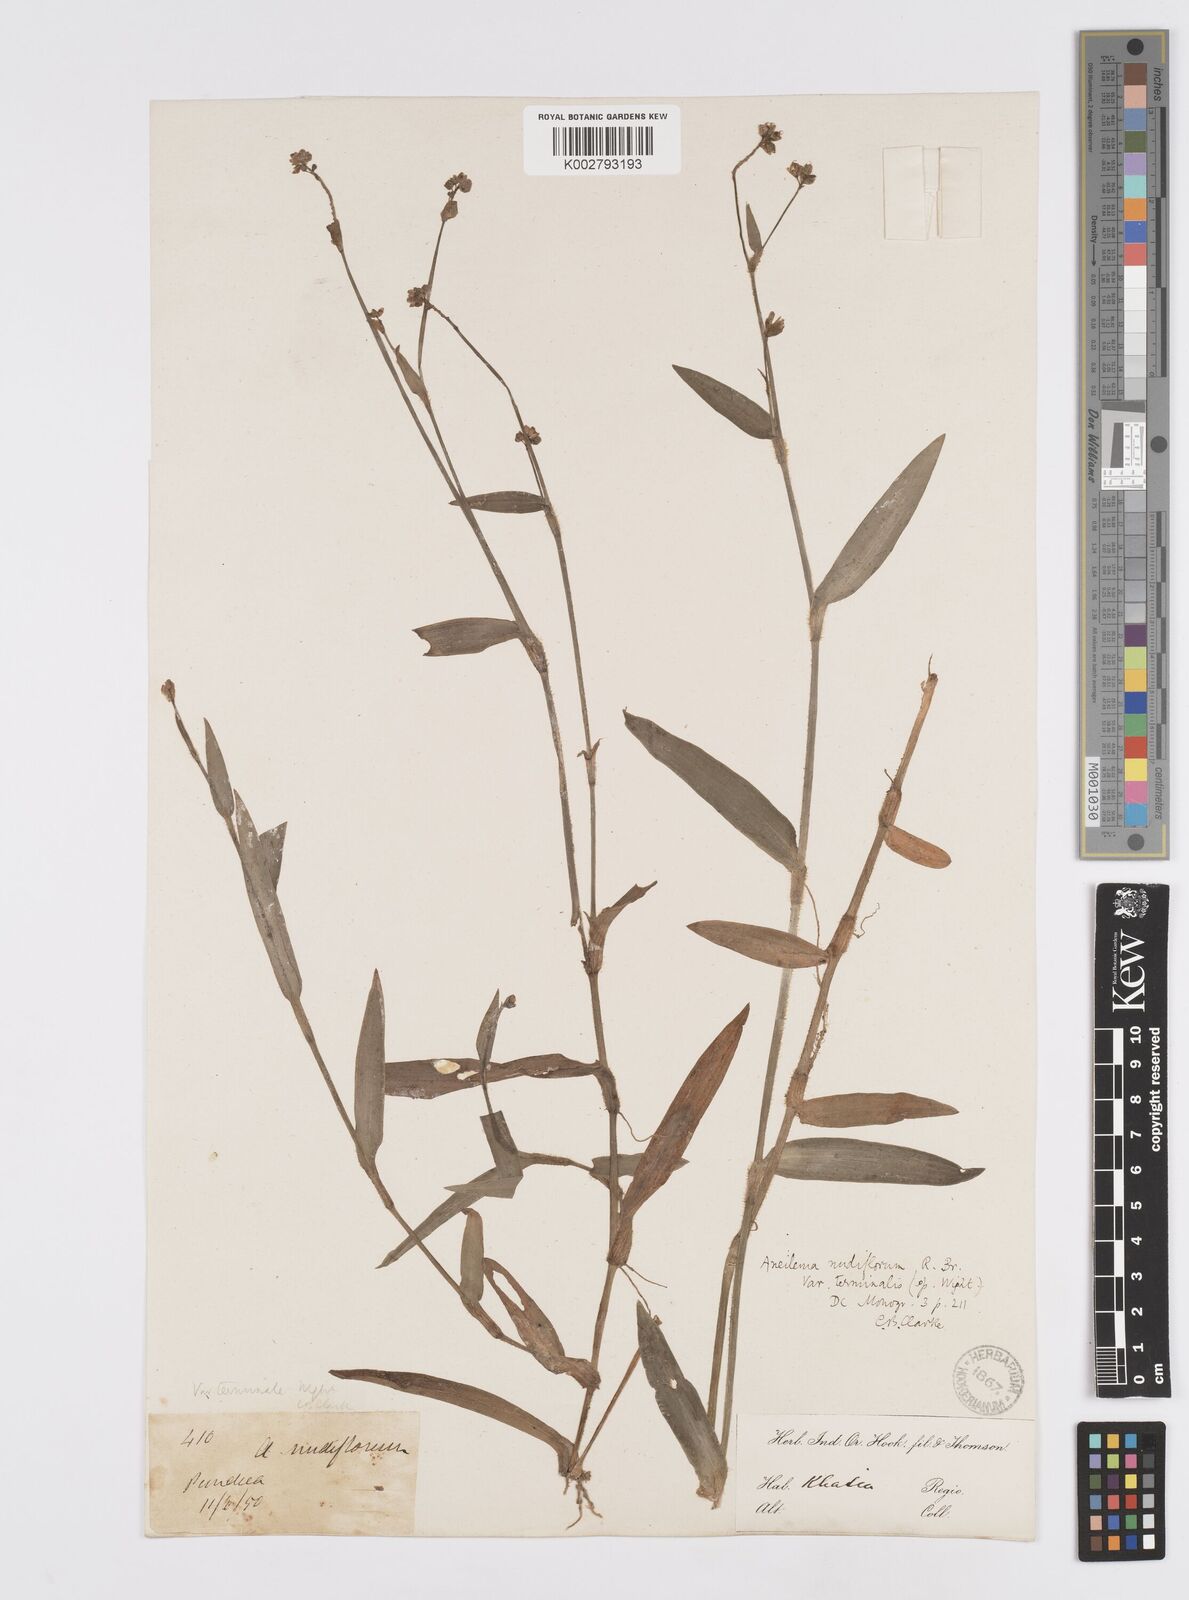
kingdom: Plantae
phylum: Tracheophyta
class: Liliopsida
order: Commelinales
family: Commelinaceae
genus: Murdannia
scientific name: Murdannia nudiflora
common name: Nakedstem dewflower
